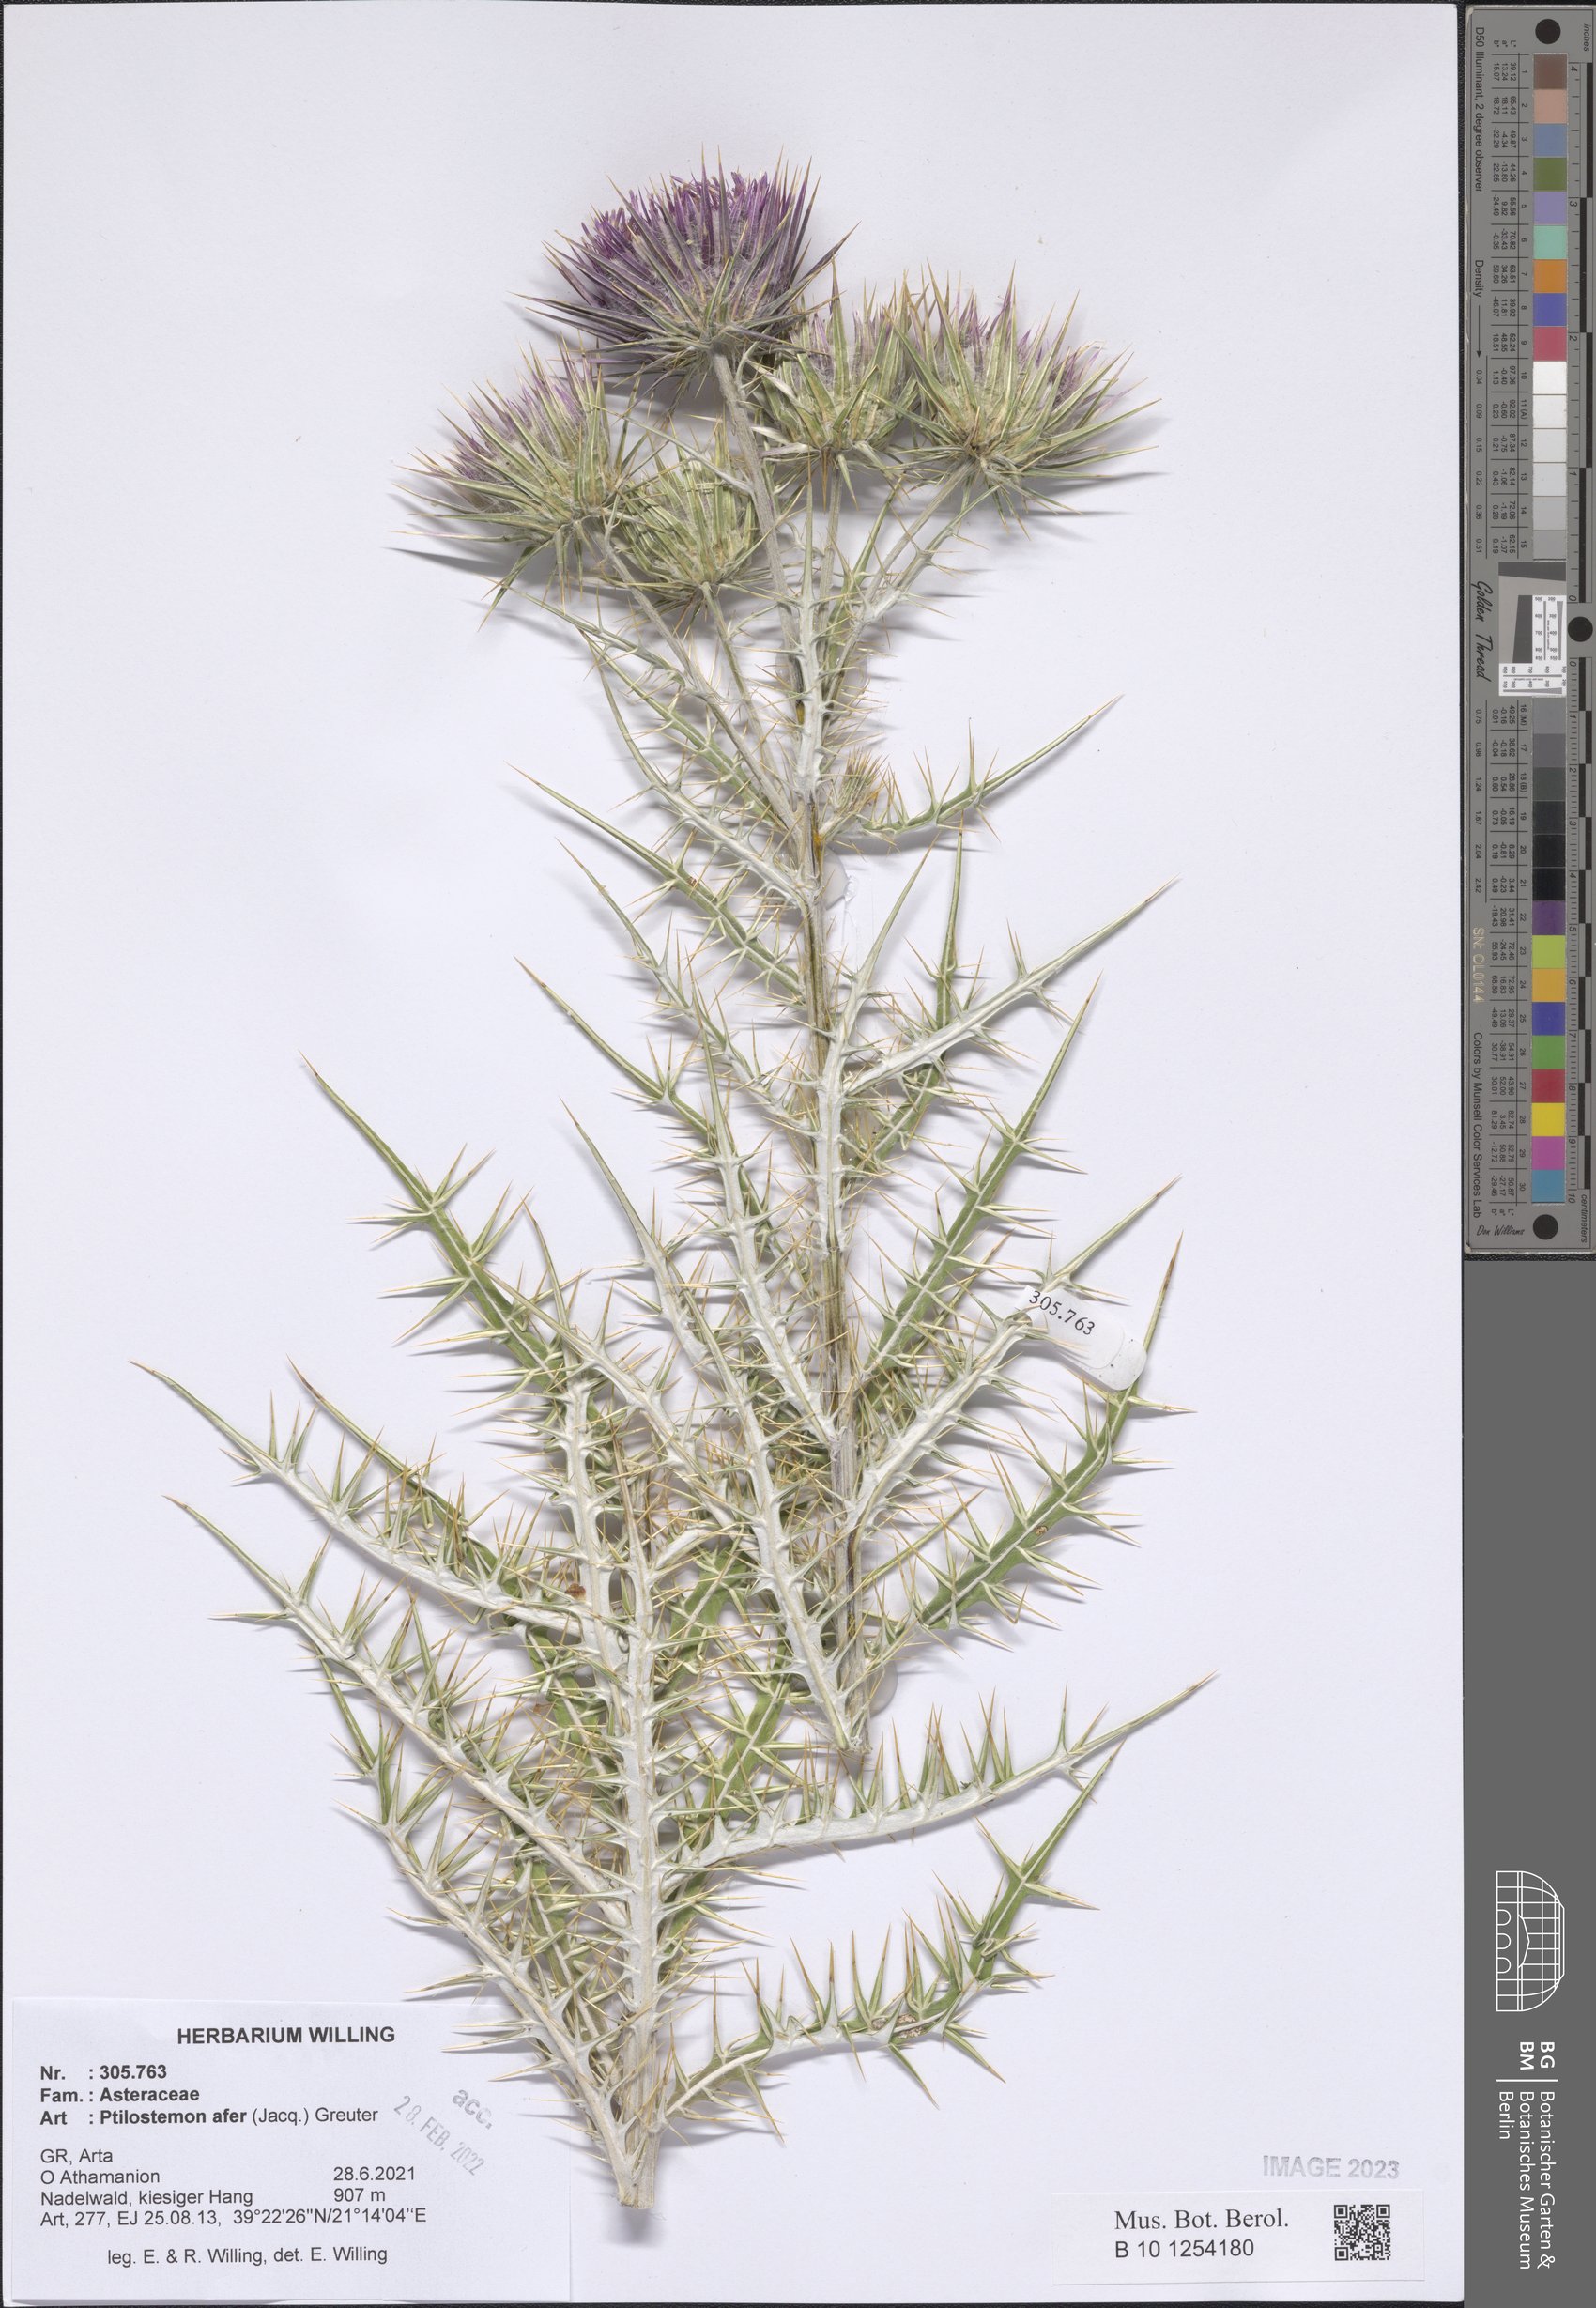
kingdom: Plantae
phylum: Tracheophyta
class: Magnoliopsida
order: Asterales
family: Asteraceae
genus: Ptilostemon
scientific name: Ptilostemon afer
